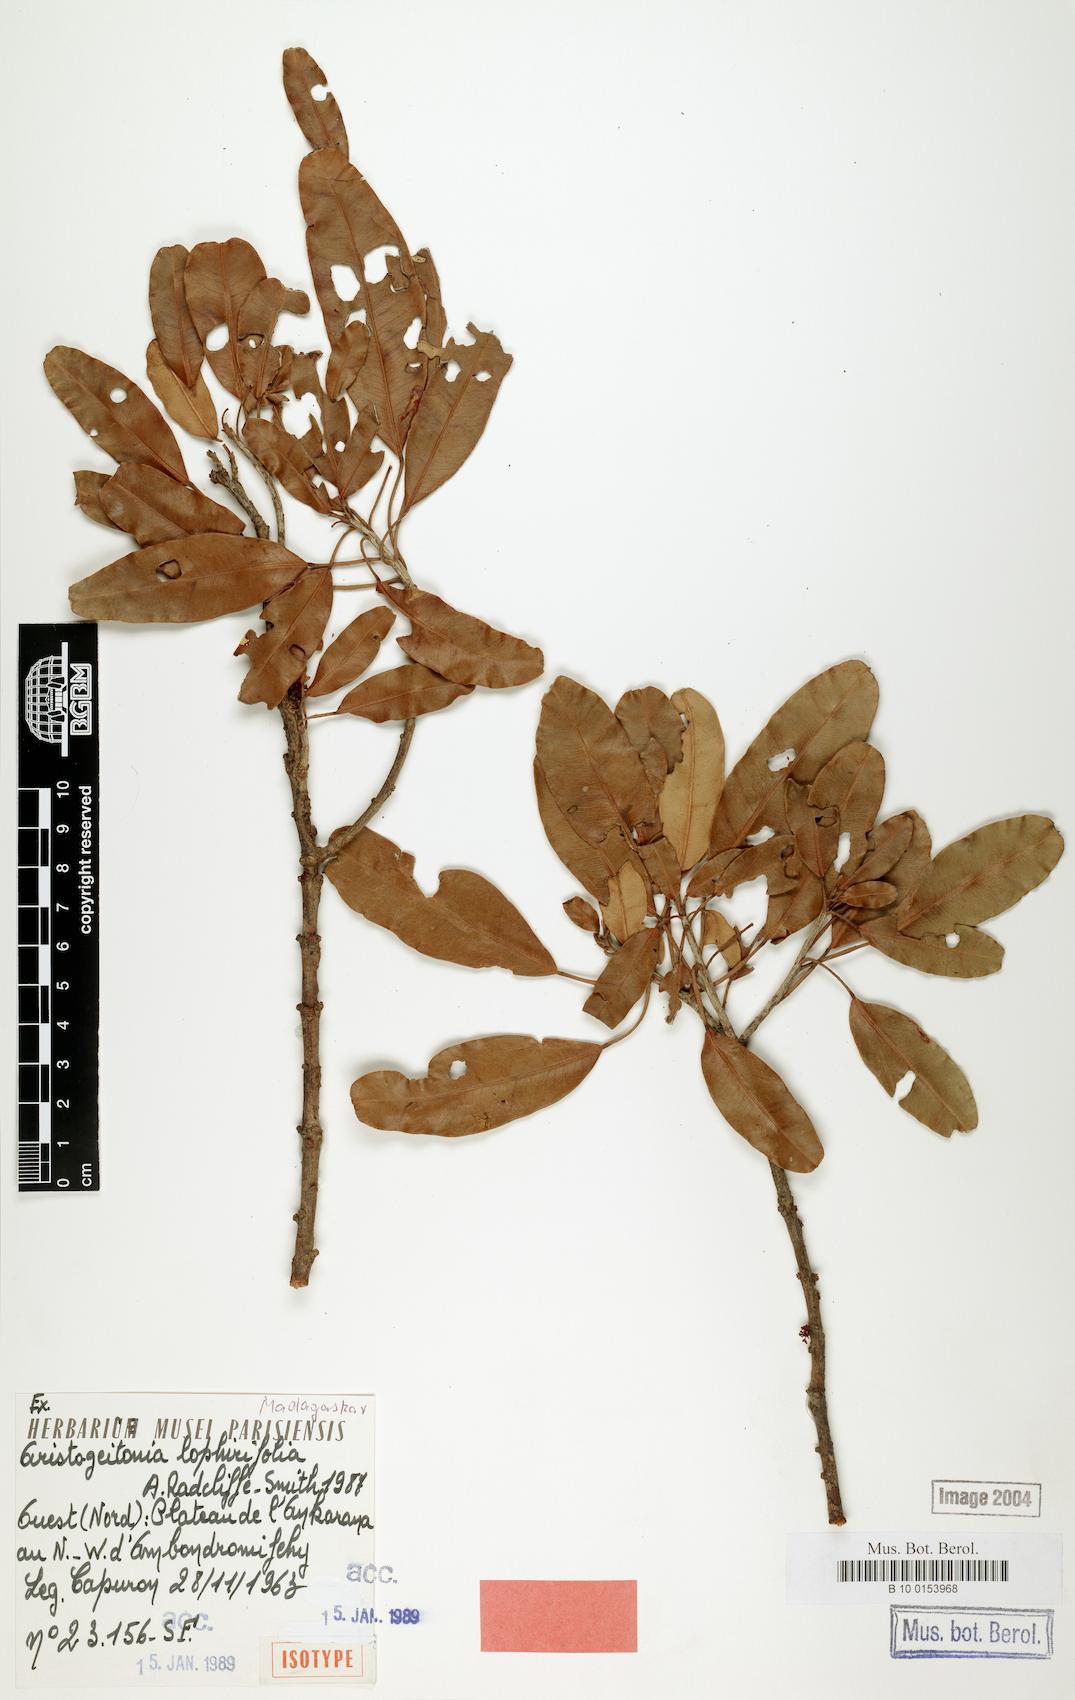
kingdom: Plantae
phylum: Tracheophyta
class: Magnoliopsida
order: Malpighiales
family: Picrodendraceae
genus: Aristogeitonia
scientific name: Aristogeitonia lophirifolia
